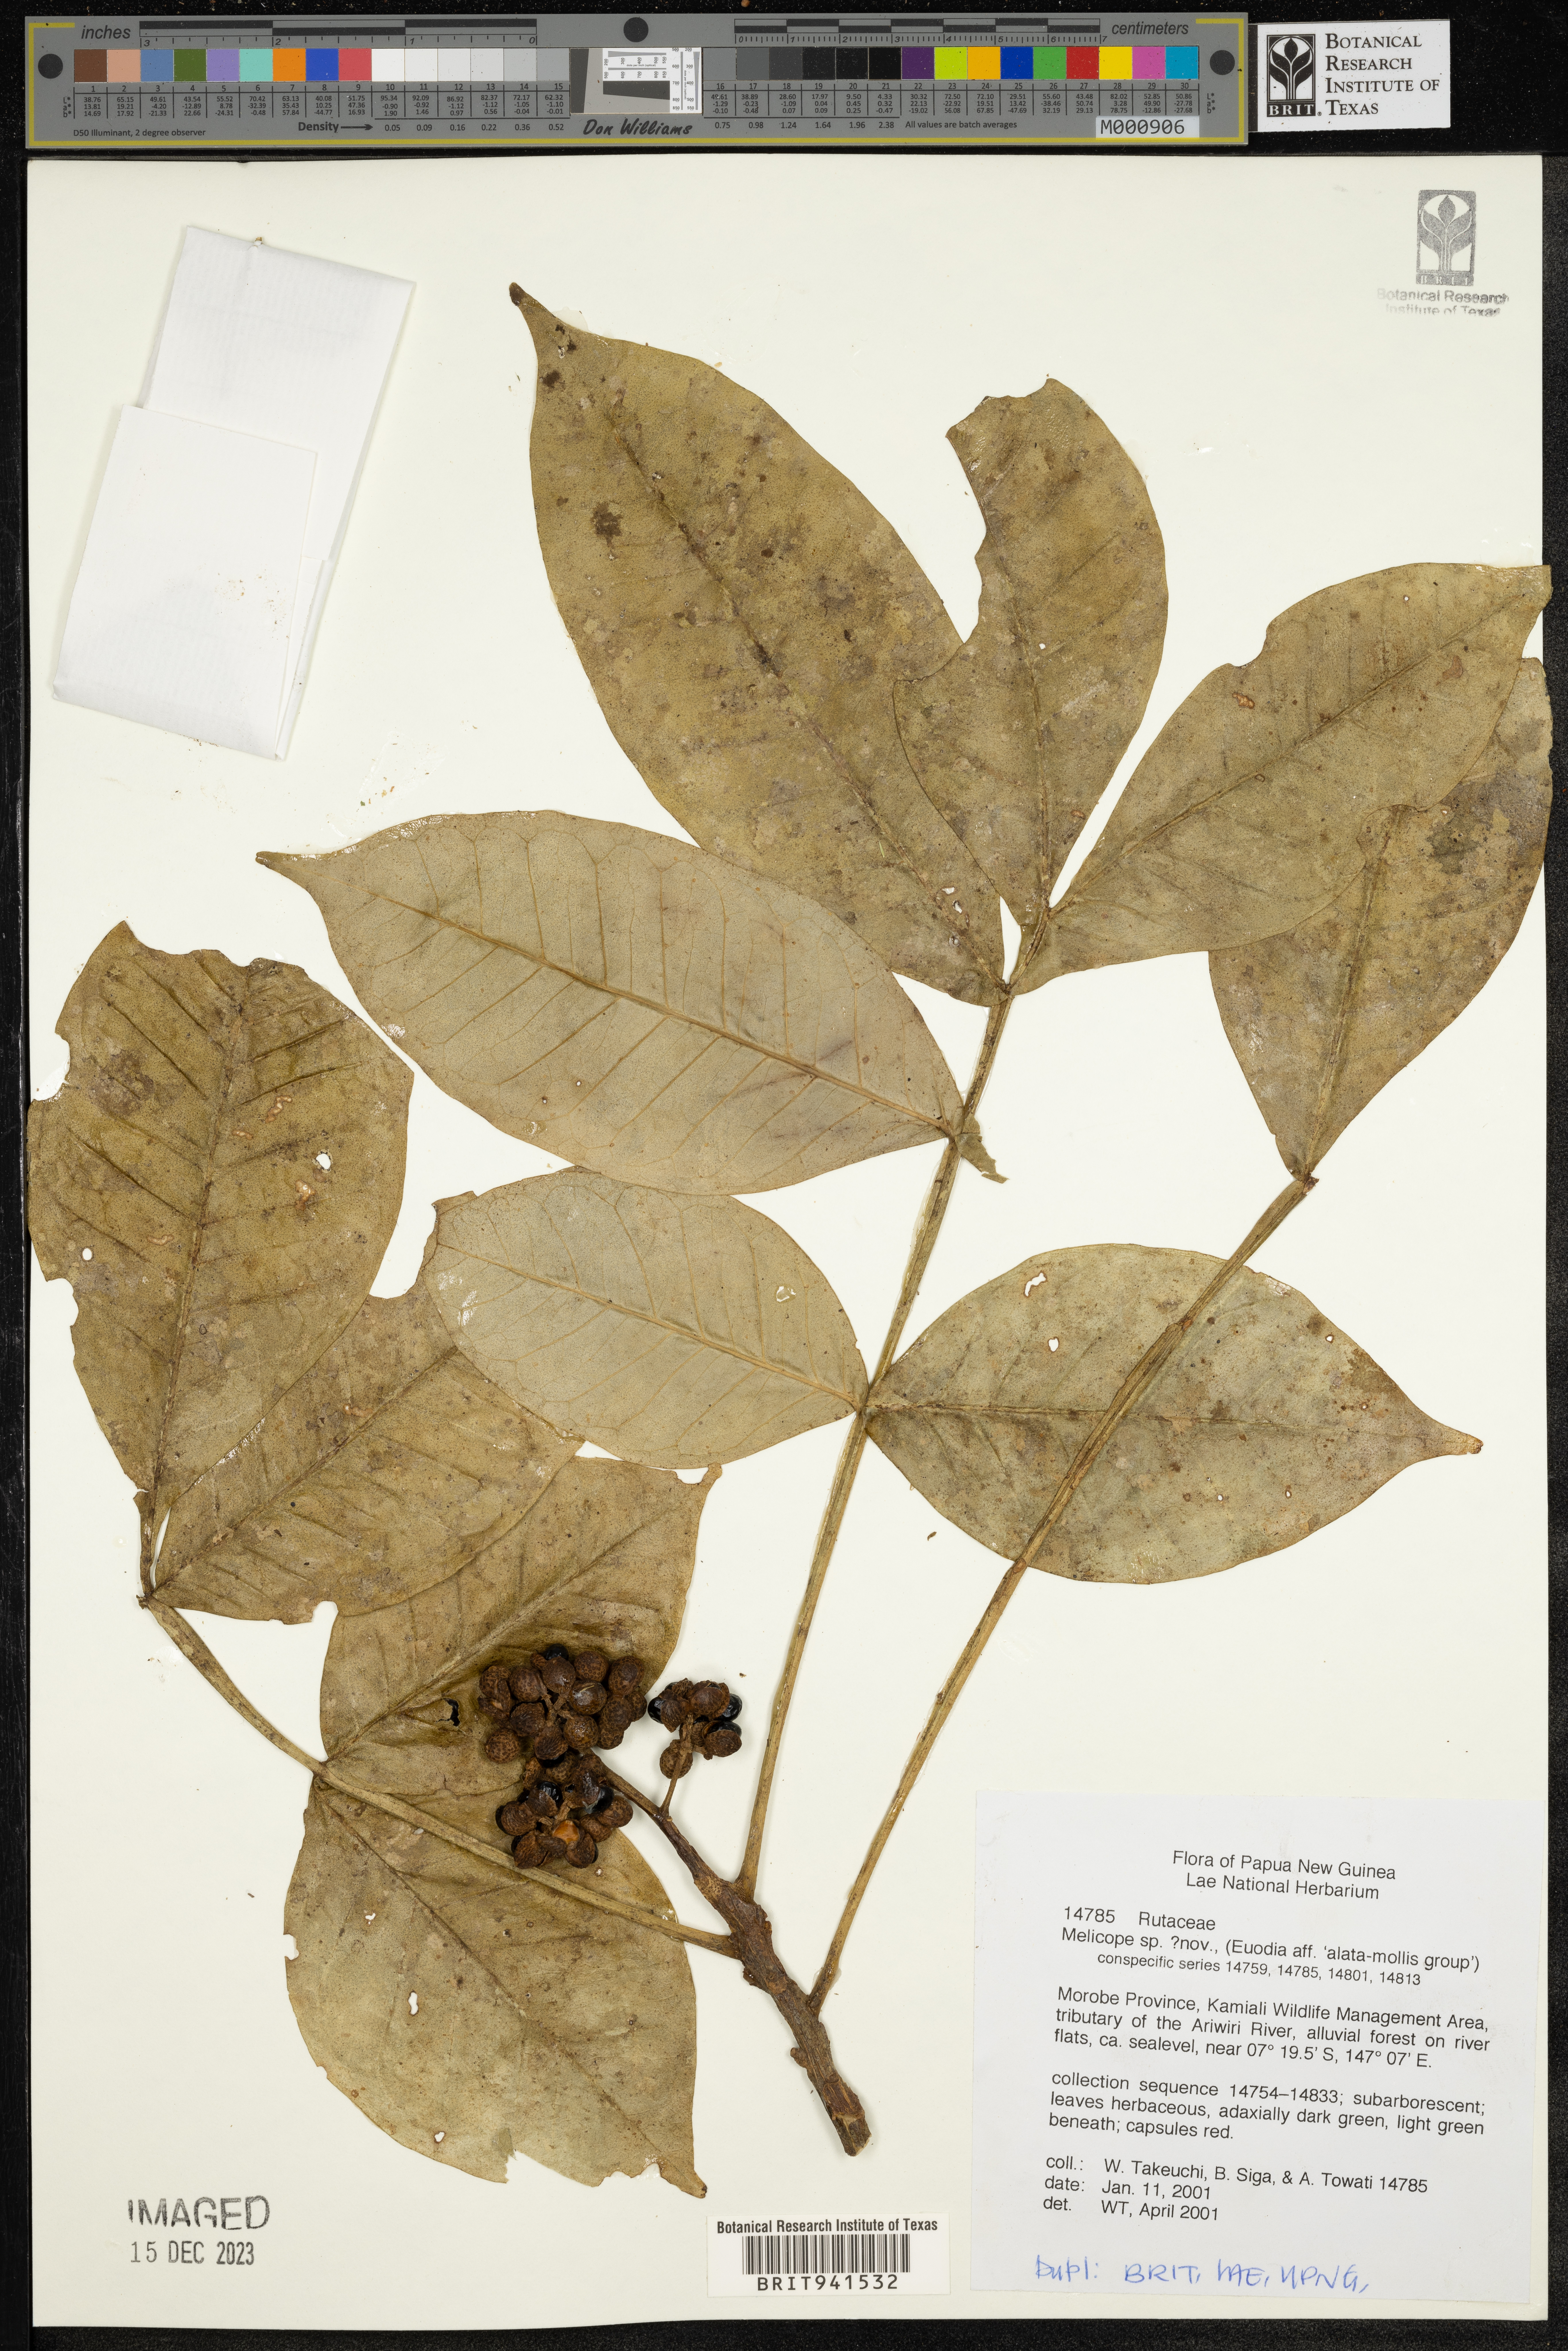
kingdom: Plantae
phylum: Tracheophyta
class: Magnoliopsida
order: Sapindales
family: Rutaceae
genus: Melicope
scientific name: Melicope
